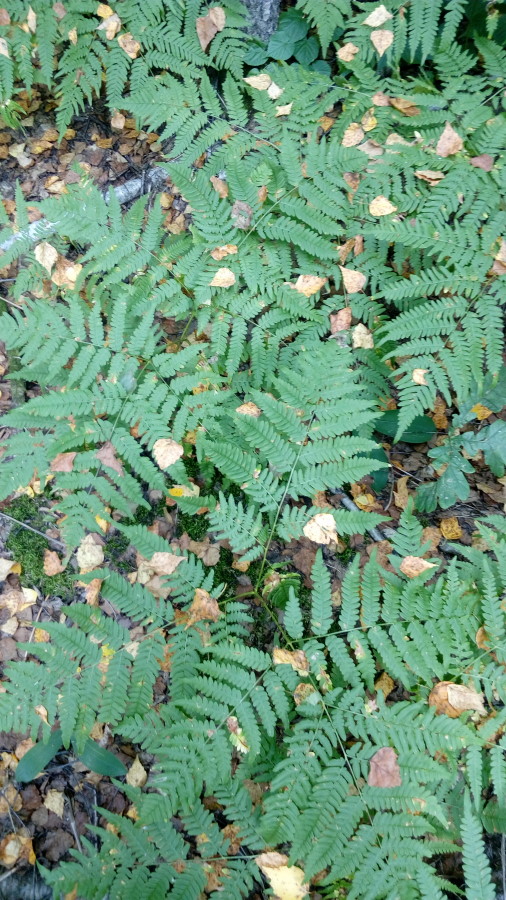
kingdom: Plantae
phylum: Tracheophyta
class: Polypodiopsida
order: Polypodiales
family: Dennstaedtiaceae
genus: Pteridium
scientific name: Pteridium aquilinum
